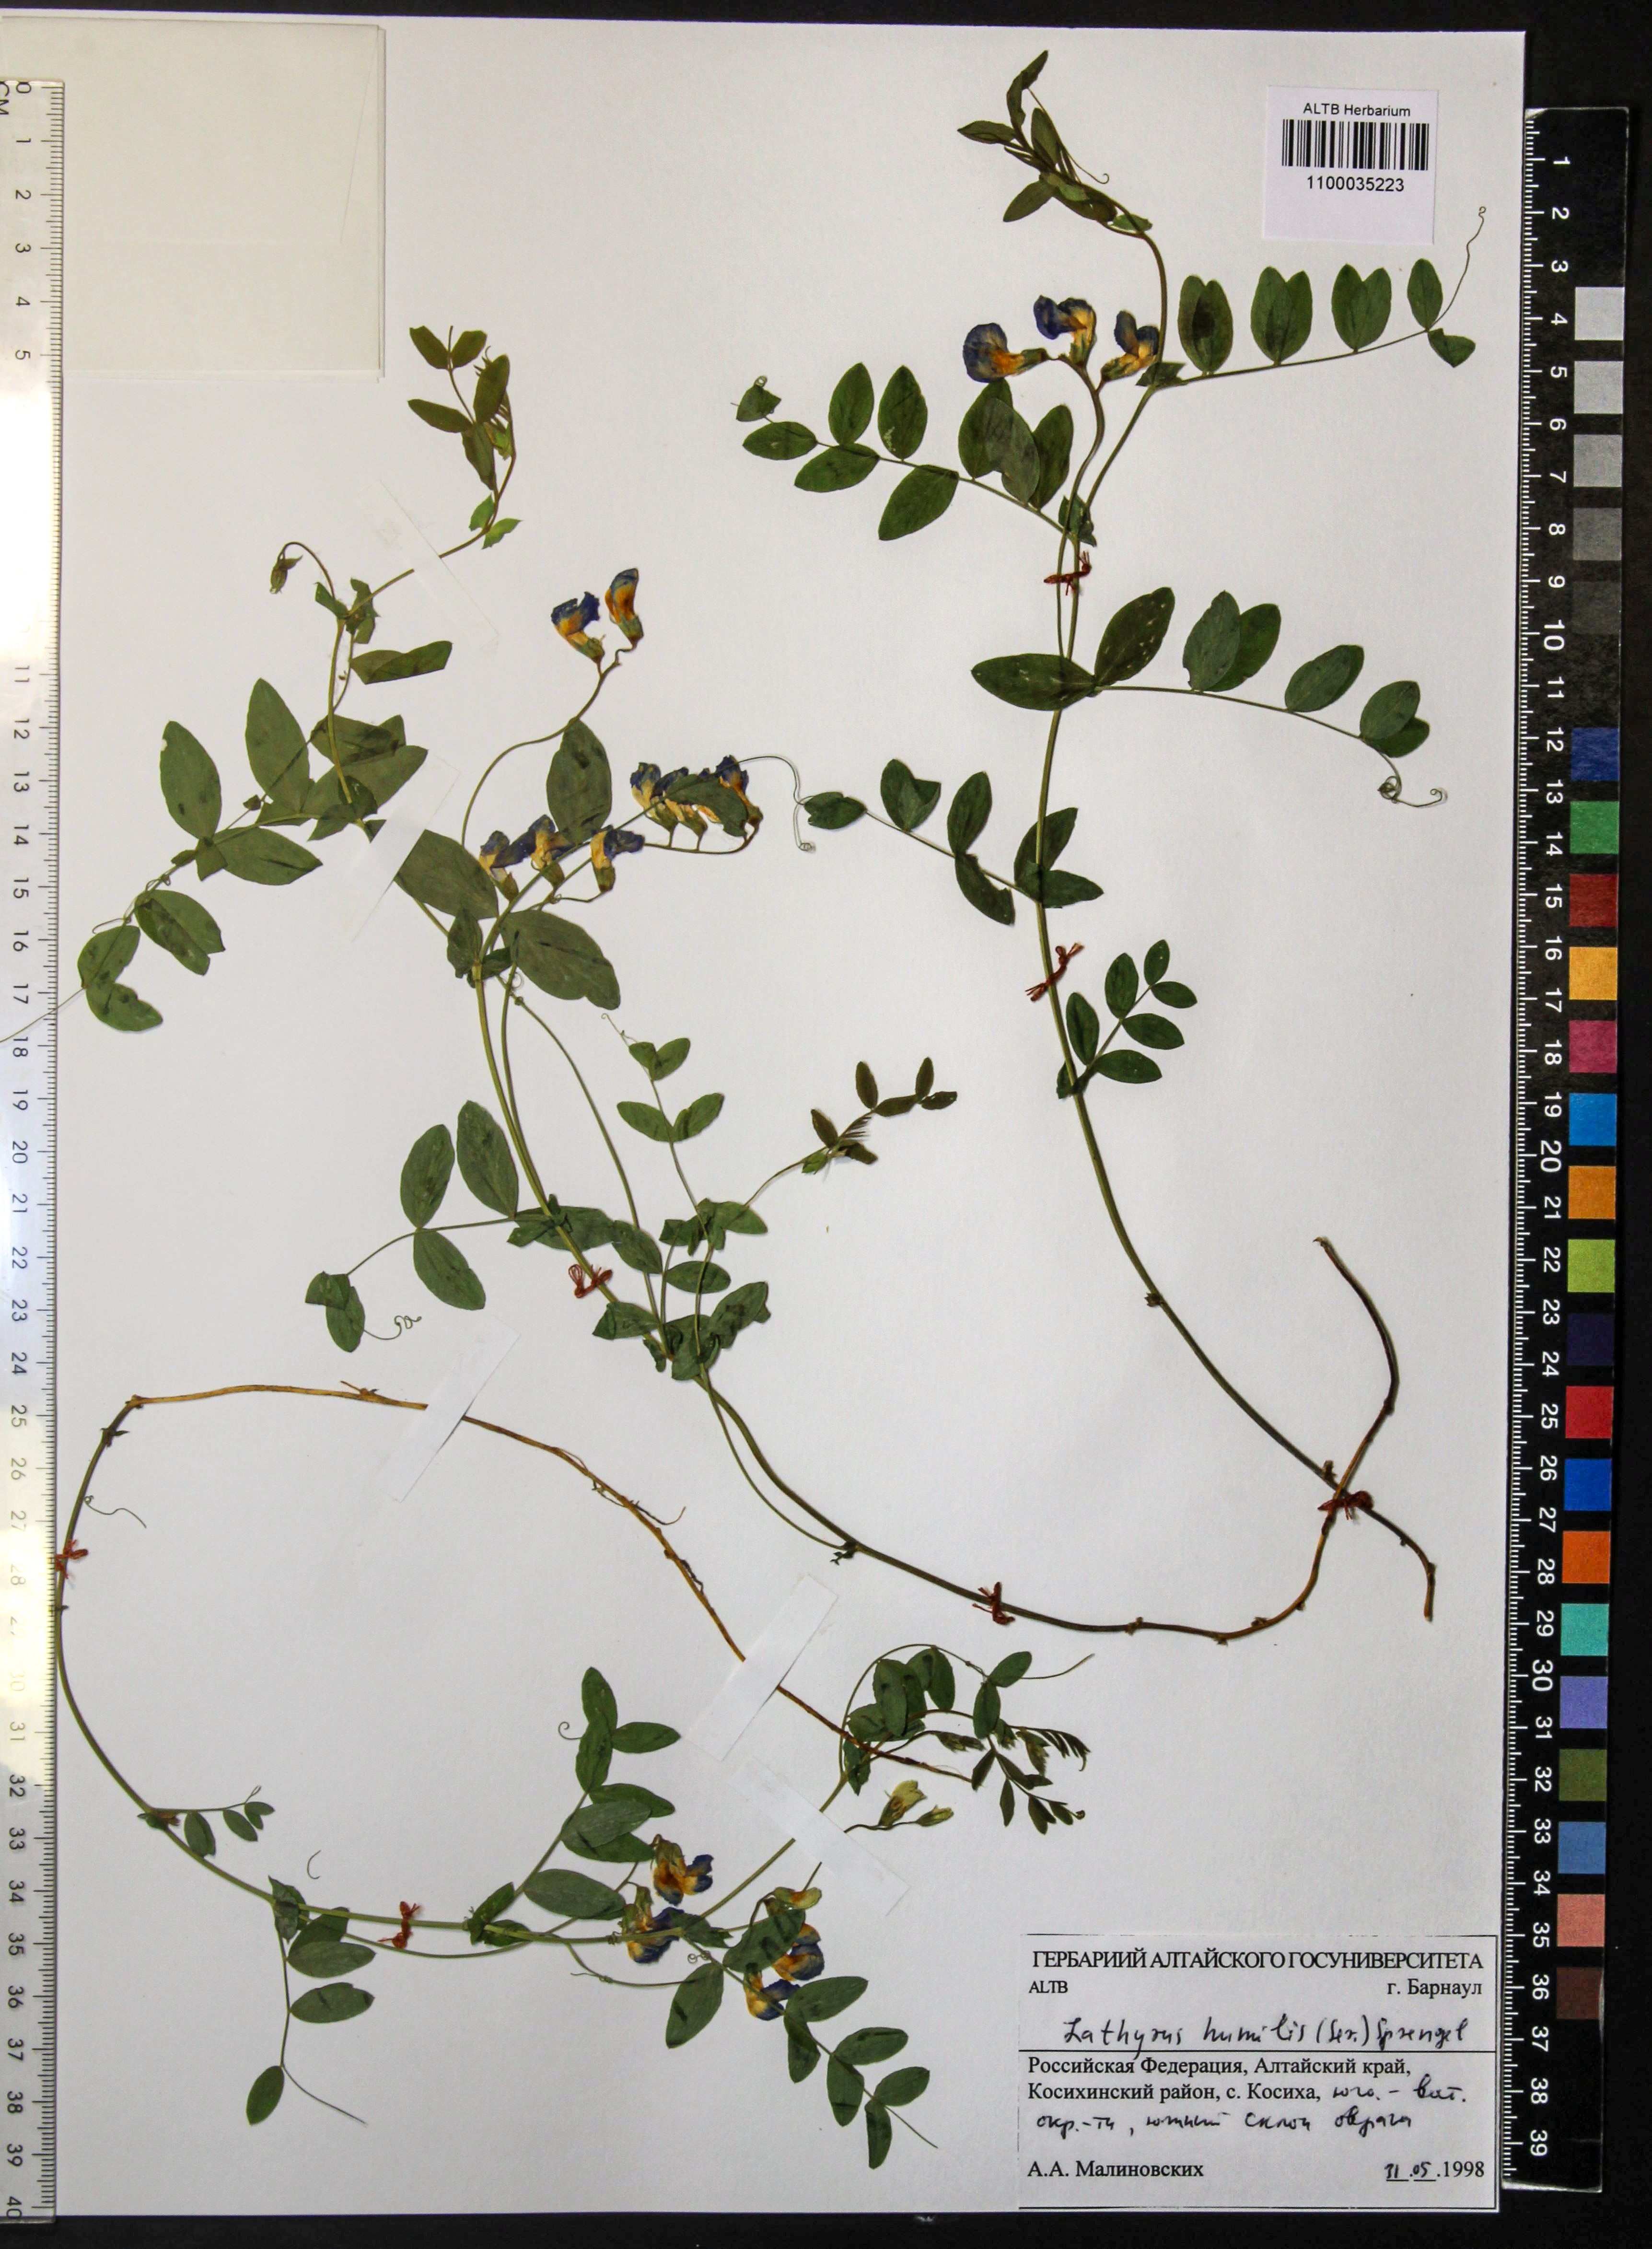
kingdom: Plantae
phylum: Tracheophyta
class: Magnoliopsida
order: Fabales
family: Fabaceae
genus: Lathyrus
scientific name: Lathyrus humilis
